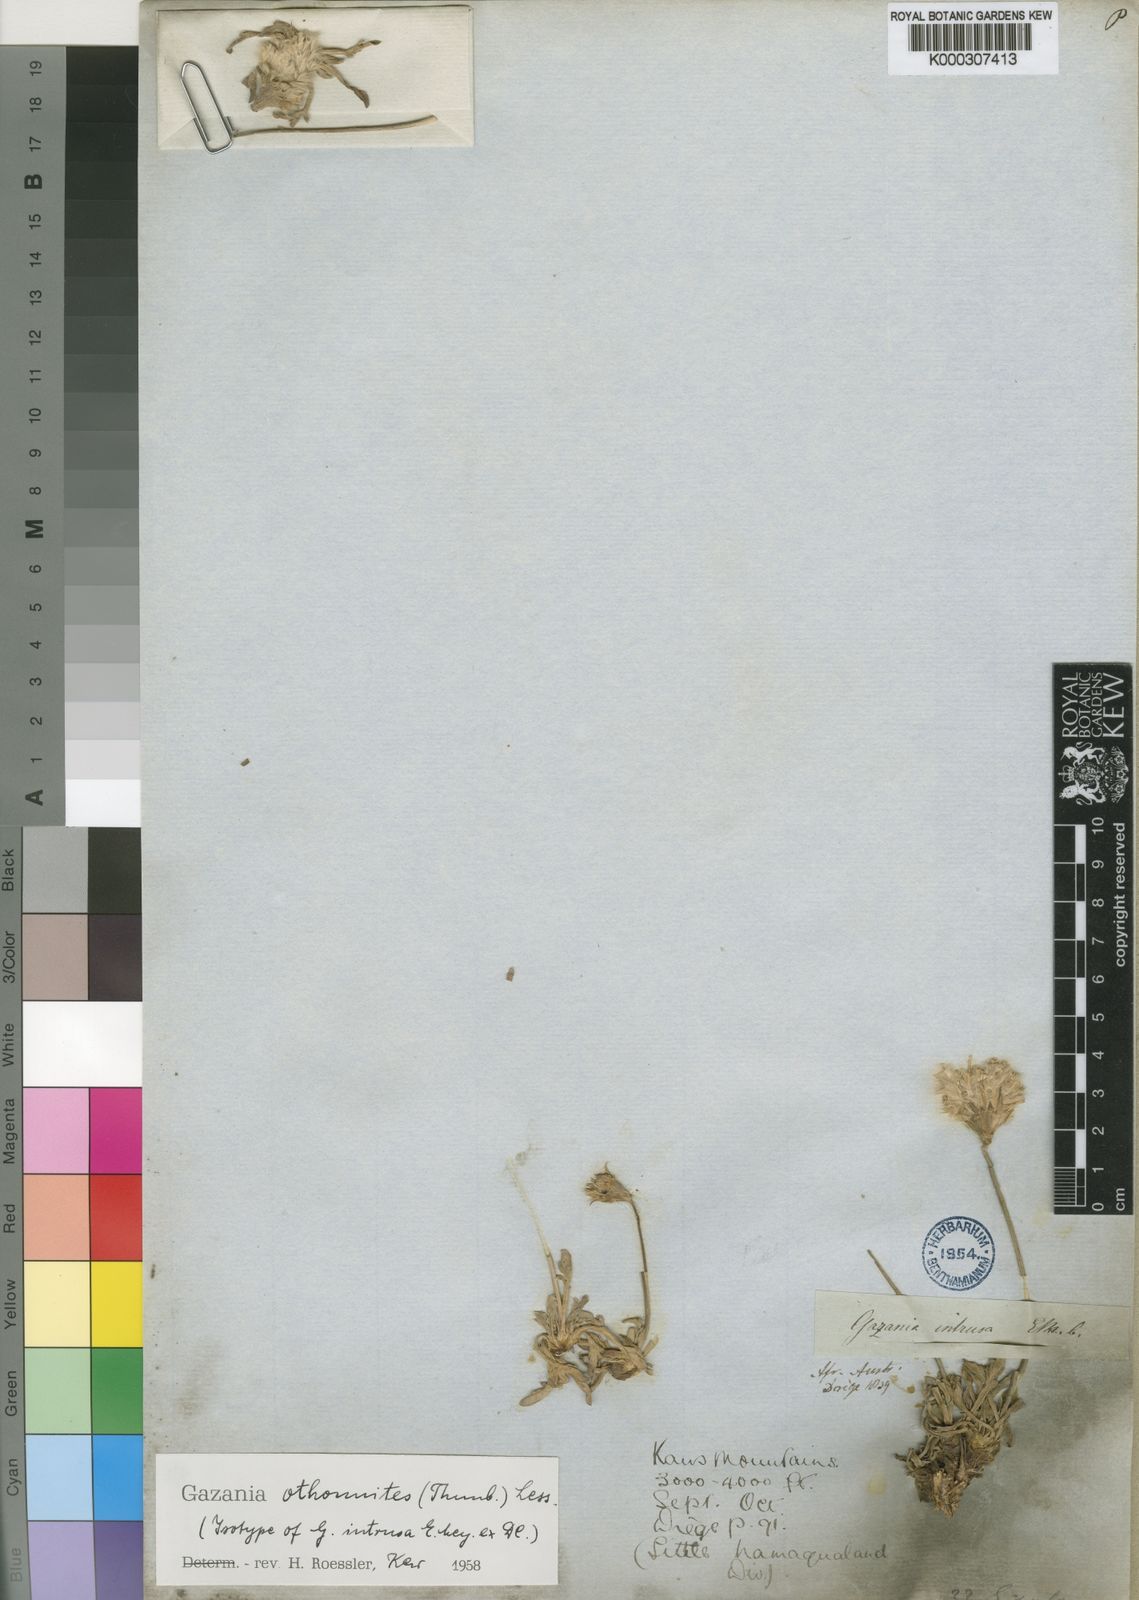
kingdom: Plantae
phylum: Tracheophyta
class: Magnoliopsida
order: Asterales
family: Asteraceae
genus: Gazania
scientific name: Gazania othonnites
